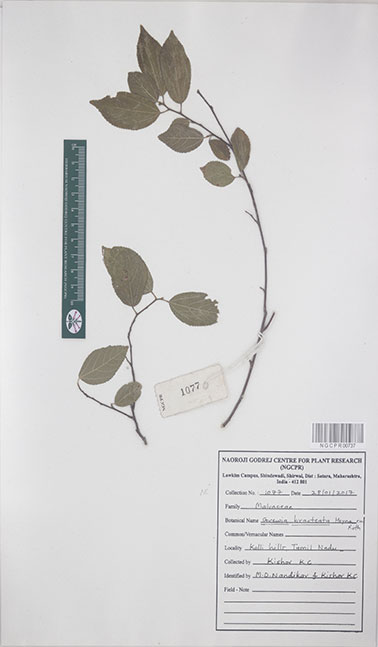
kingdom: Plantae
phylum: Tracheophyta
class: Magnoliopsida
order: Malvales
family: Malvaceae
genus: Grewia
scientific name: Grewia bracteata
